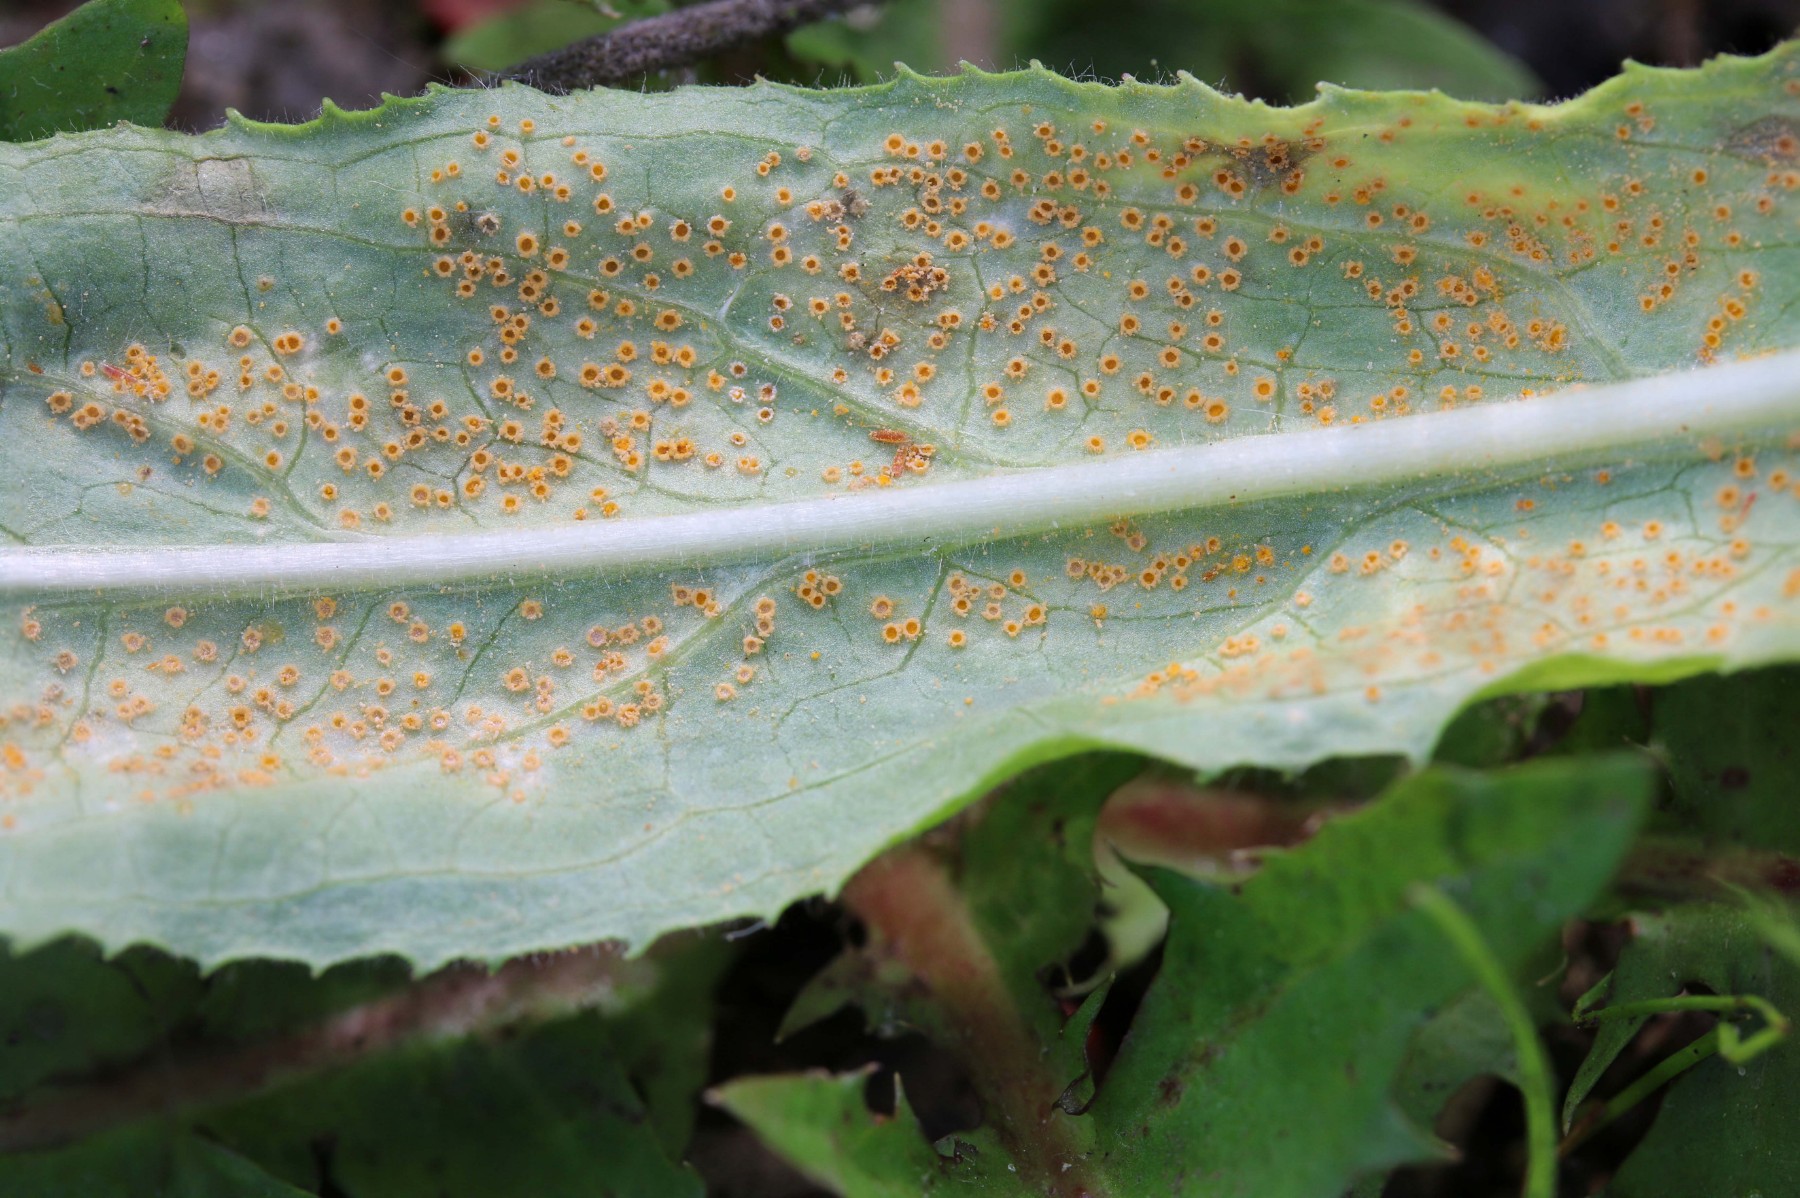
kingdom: Fungi
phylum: Basidiomycota
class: Pucciniomycetes
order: Pucciniales
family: Pucciniaceae
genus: Puccinia
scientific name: Puccinia pulverulenta
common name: dueurt-tvecellerust
